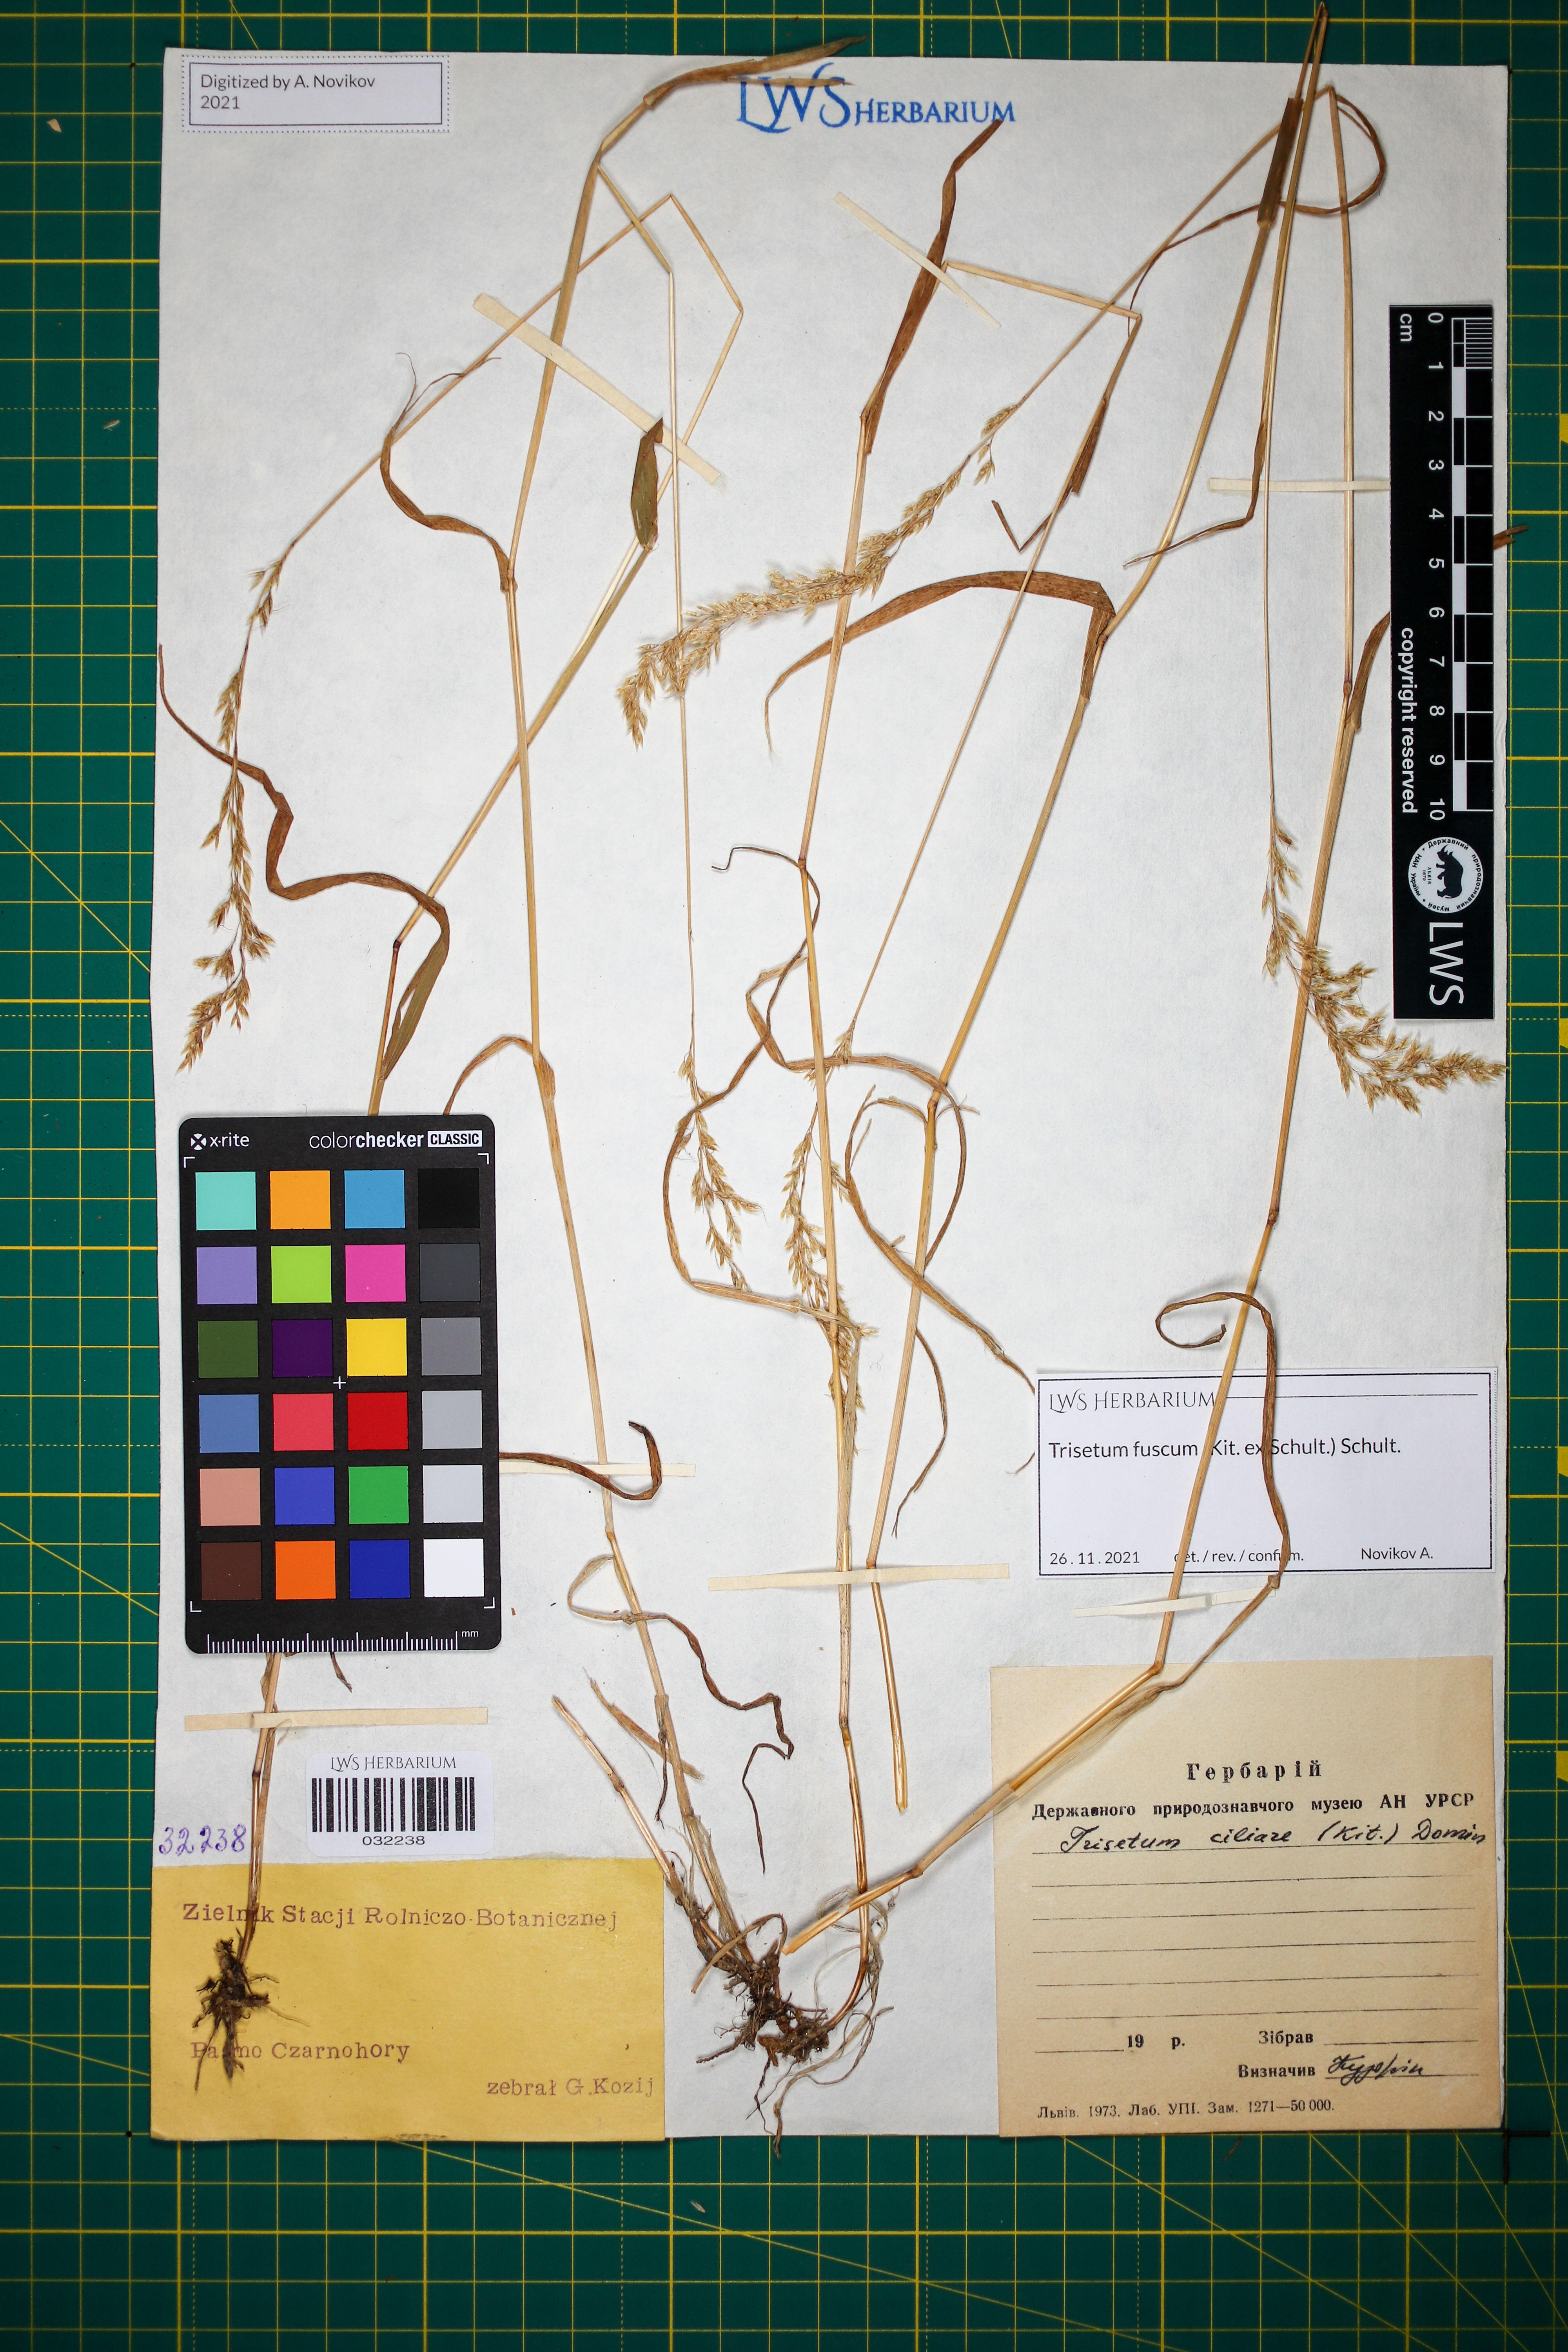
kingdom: Plantae
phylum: Tracheophyta
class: Liliopsida
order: Poales
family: Poaceae
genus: Trisetum
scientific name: Trisetum fuscum
